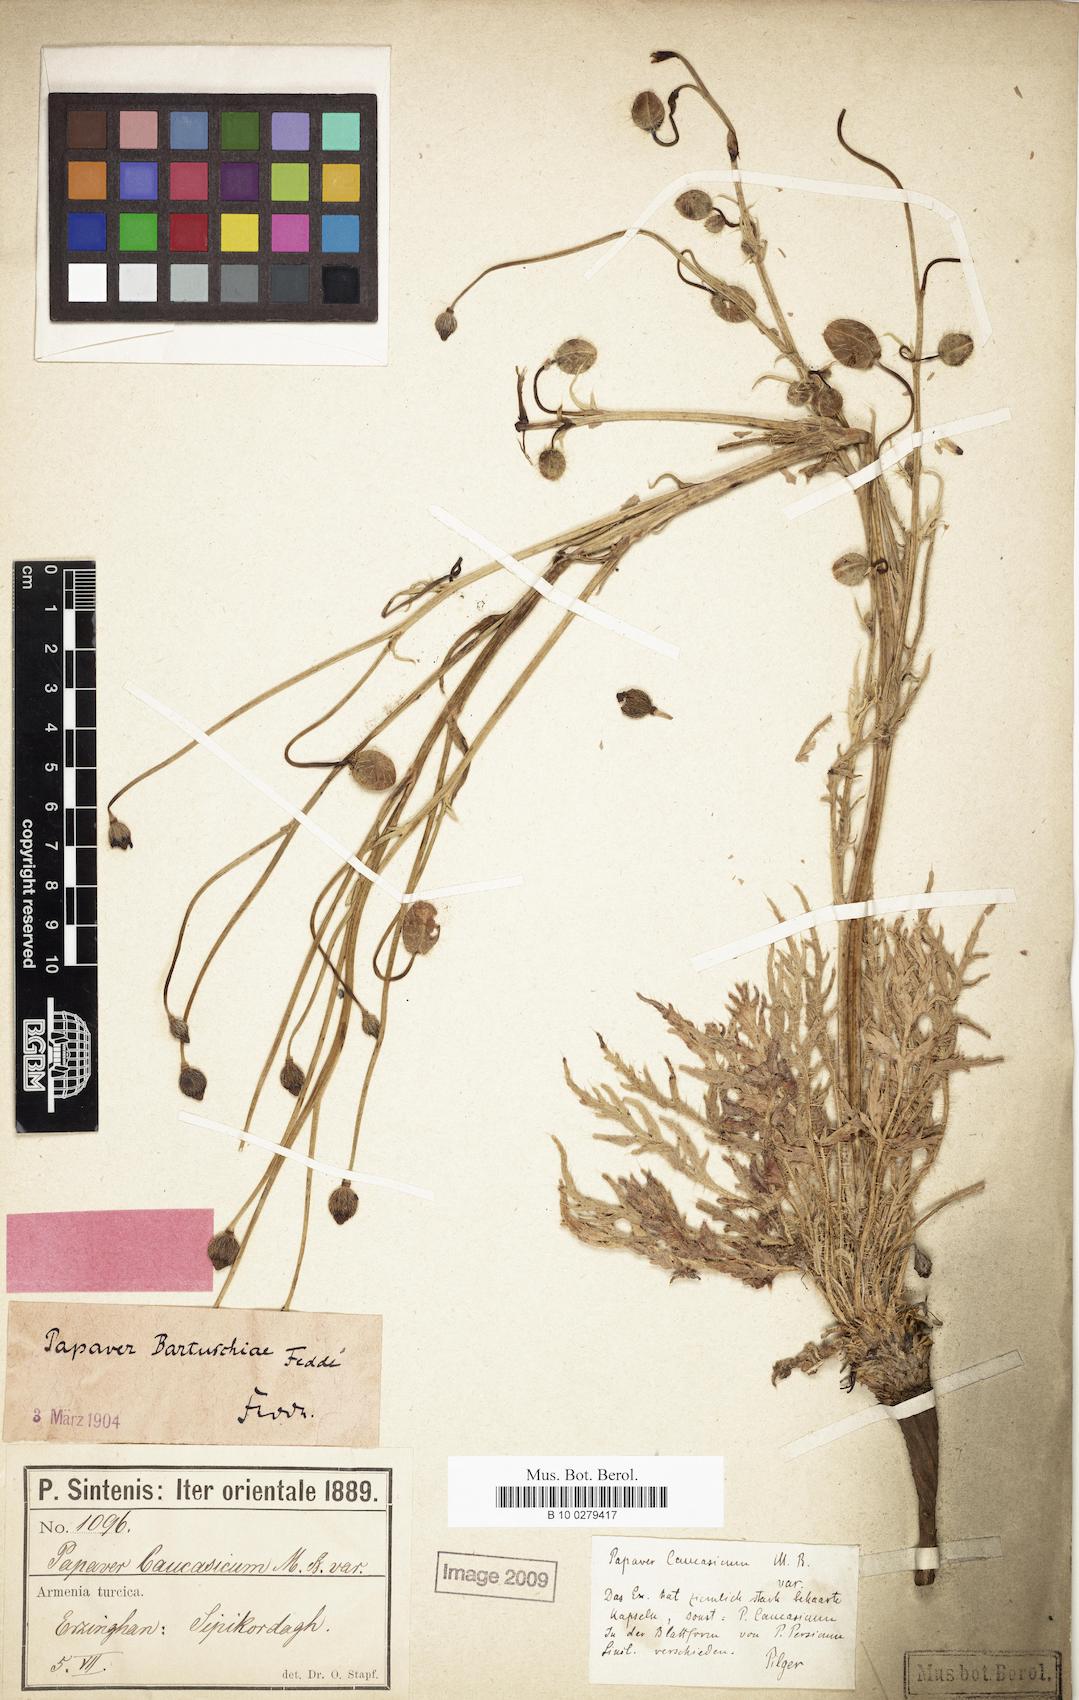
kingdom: Plantae
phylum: Tracheophyta
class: Magnoliopsida
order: Ranunculales
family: Papaveraceae
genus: Papaver
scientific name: Papaver bartuschianum
